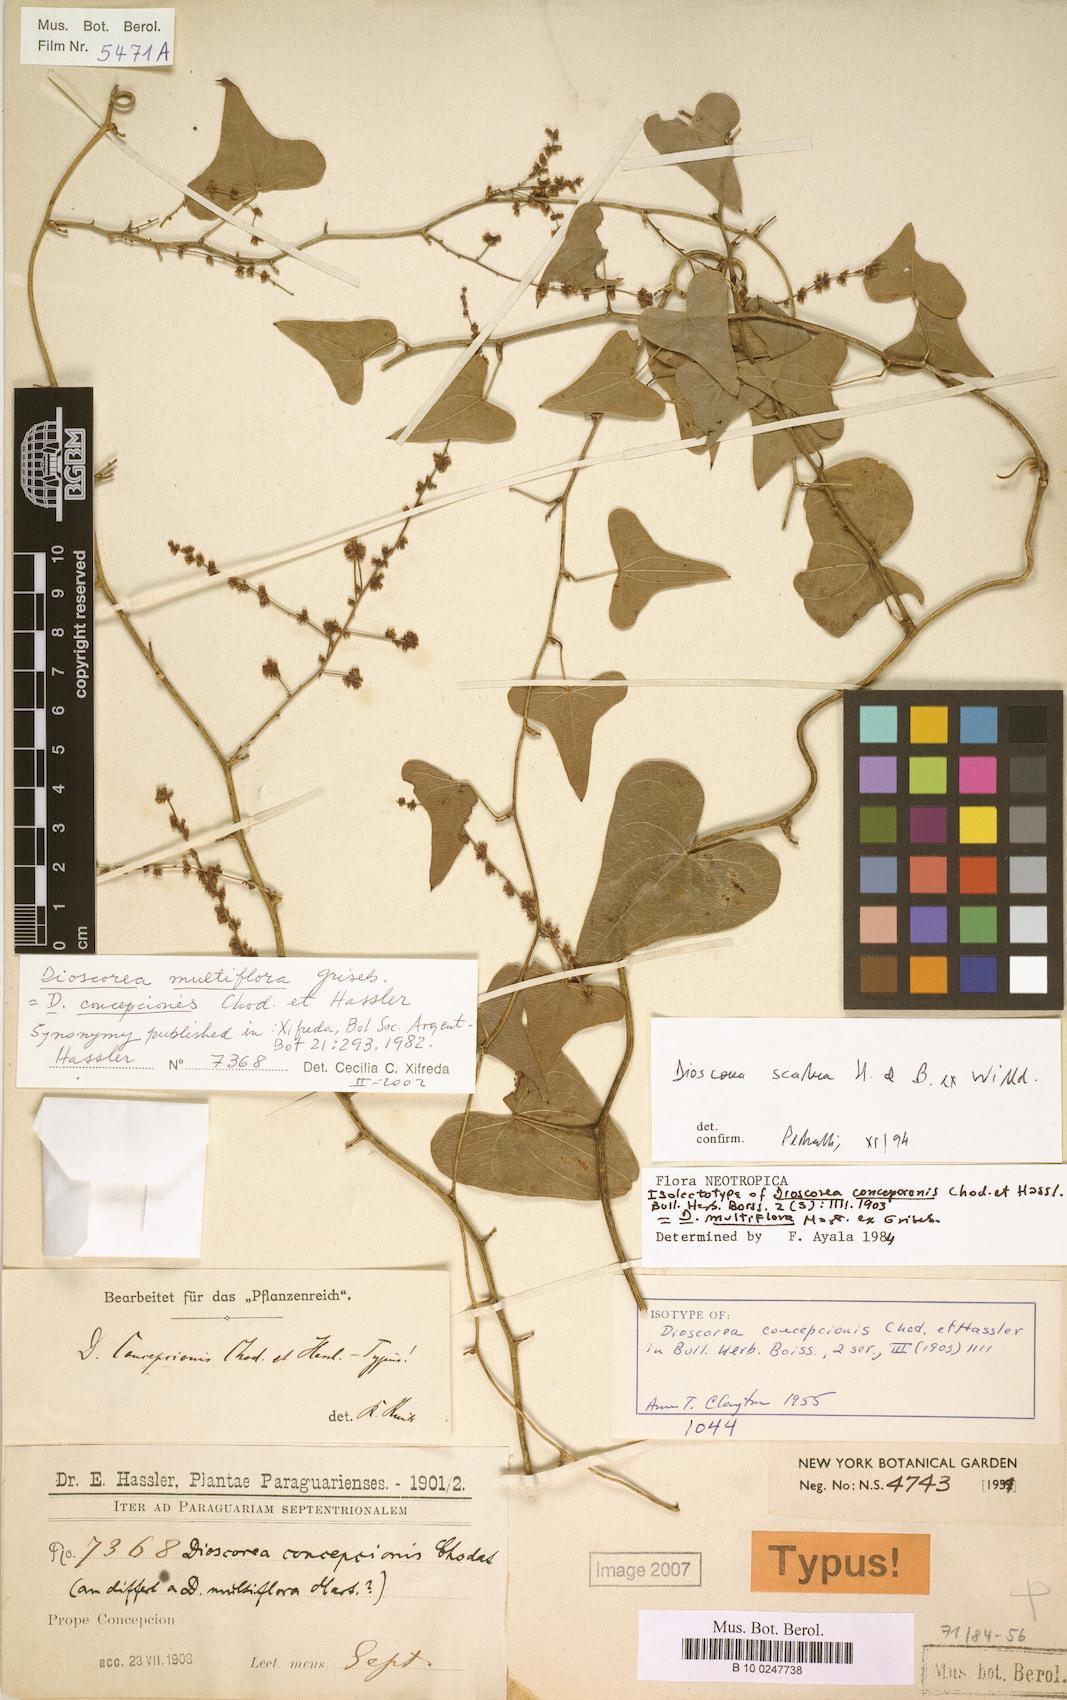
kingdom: Plantae
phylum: Tracheophyta
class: Liliopsida
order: Dioscoreales
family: Dioscoreaceae
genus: Dioscorea
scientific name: Dioscorea scabra
